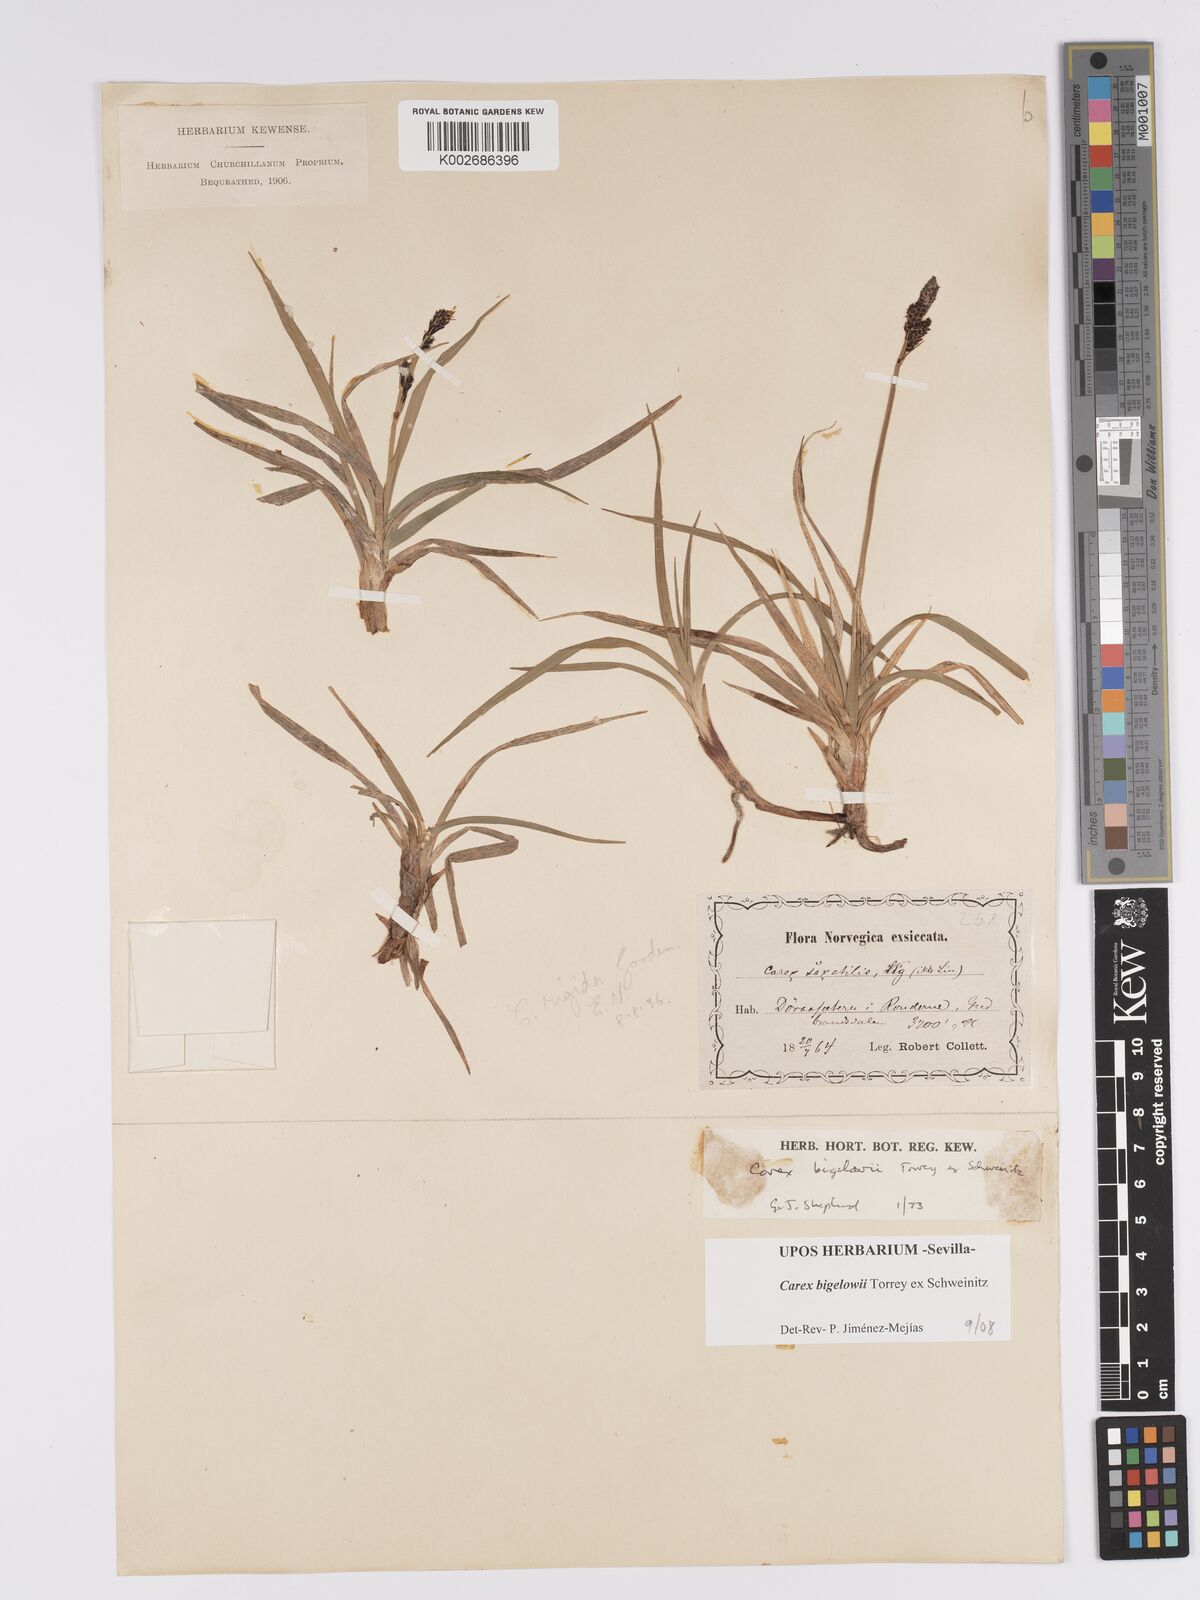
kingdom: Plantae
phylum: Tracheophyta
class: Liliopsida
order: Poales
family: Cyperaceae
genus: Carex
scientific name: Carex bigelowii
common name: Stiff sedge
